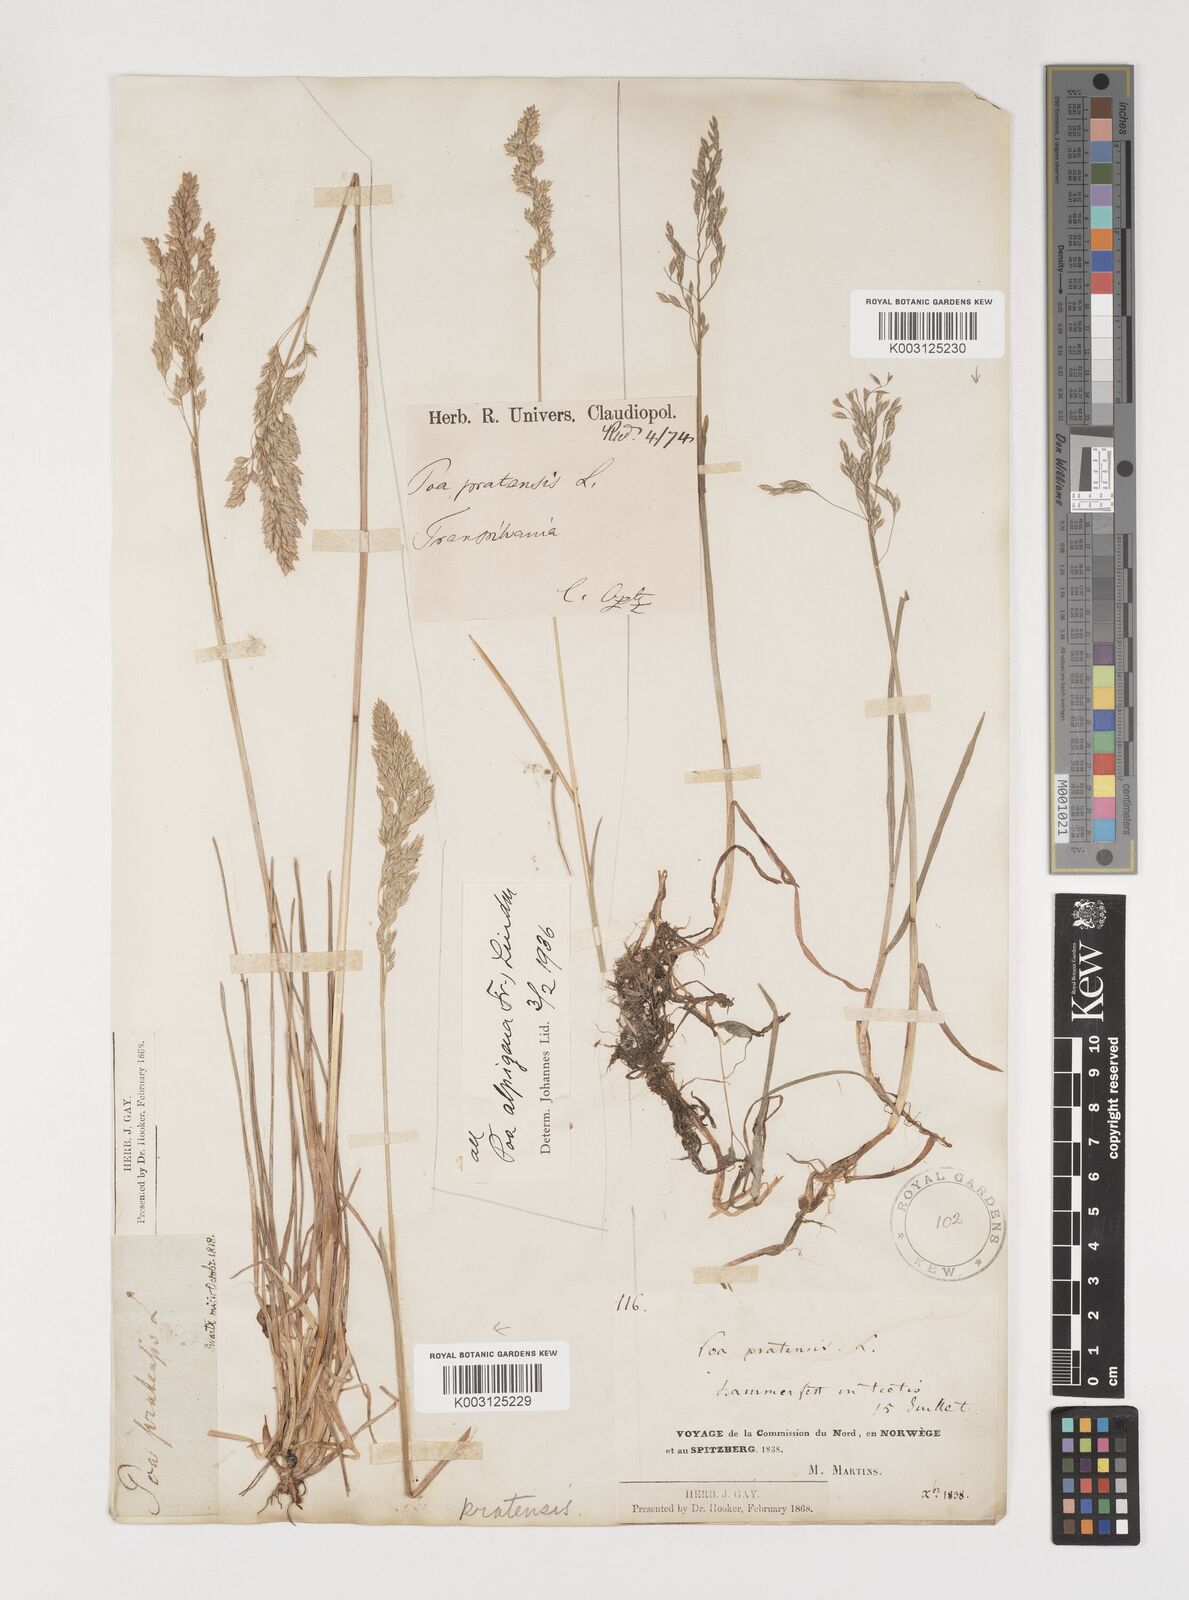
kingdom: Plantae
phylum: Tracheophyta
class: Liliopsida
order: Poales
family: Poaceae
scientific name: Poaceae
